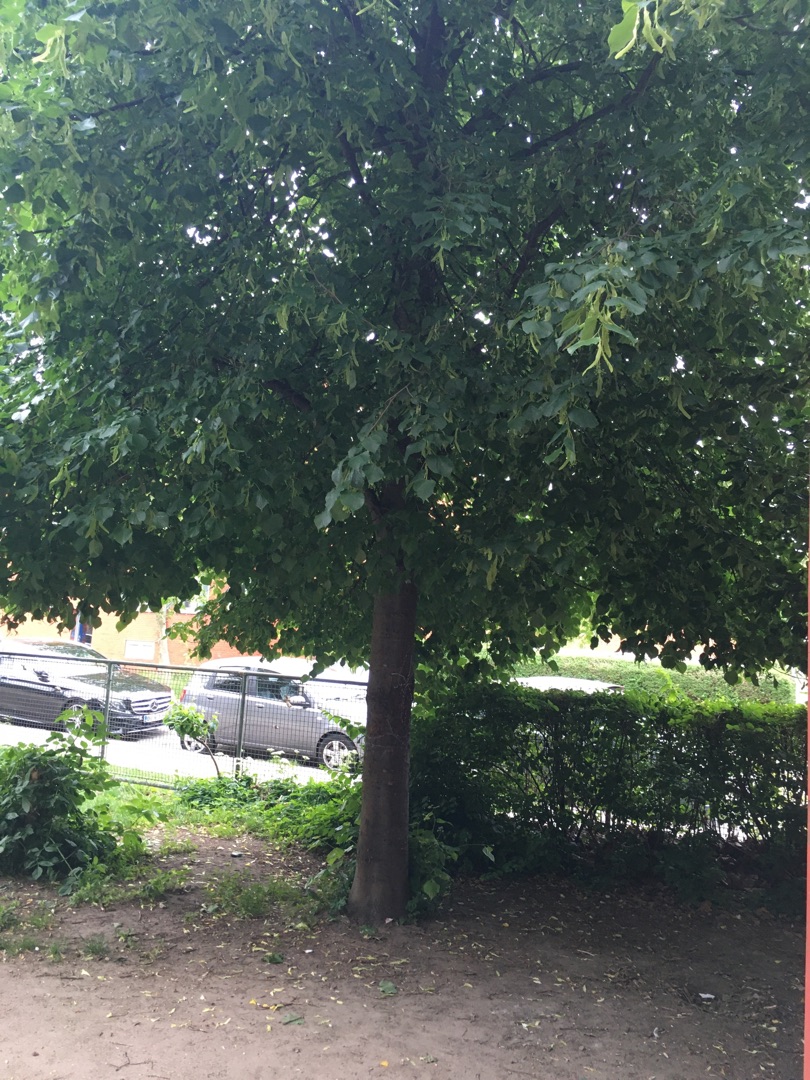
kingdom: Plantae
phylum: Tracheophyta
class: Magnoliopsida
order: Malvales
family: Malvaceae
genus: Tilia
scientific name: Tilia
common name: Lindeslægten
